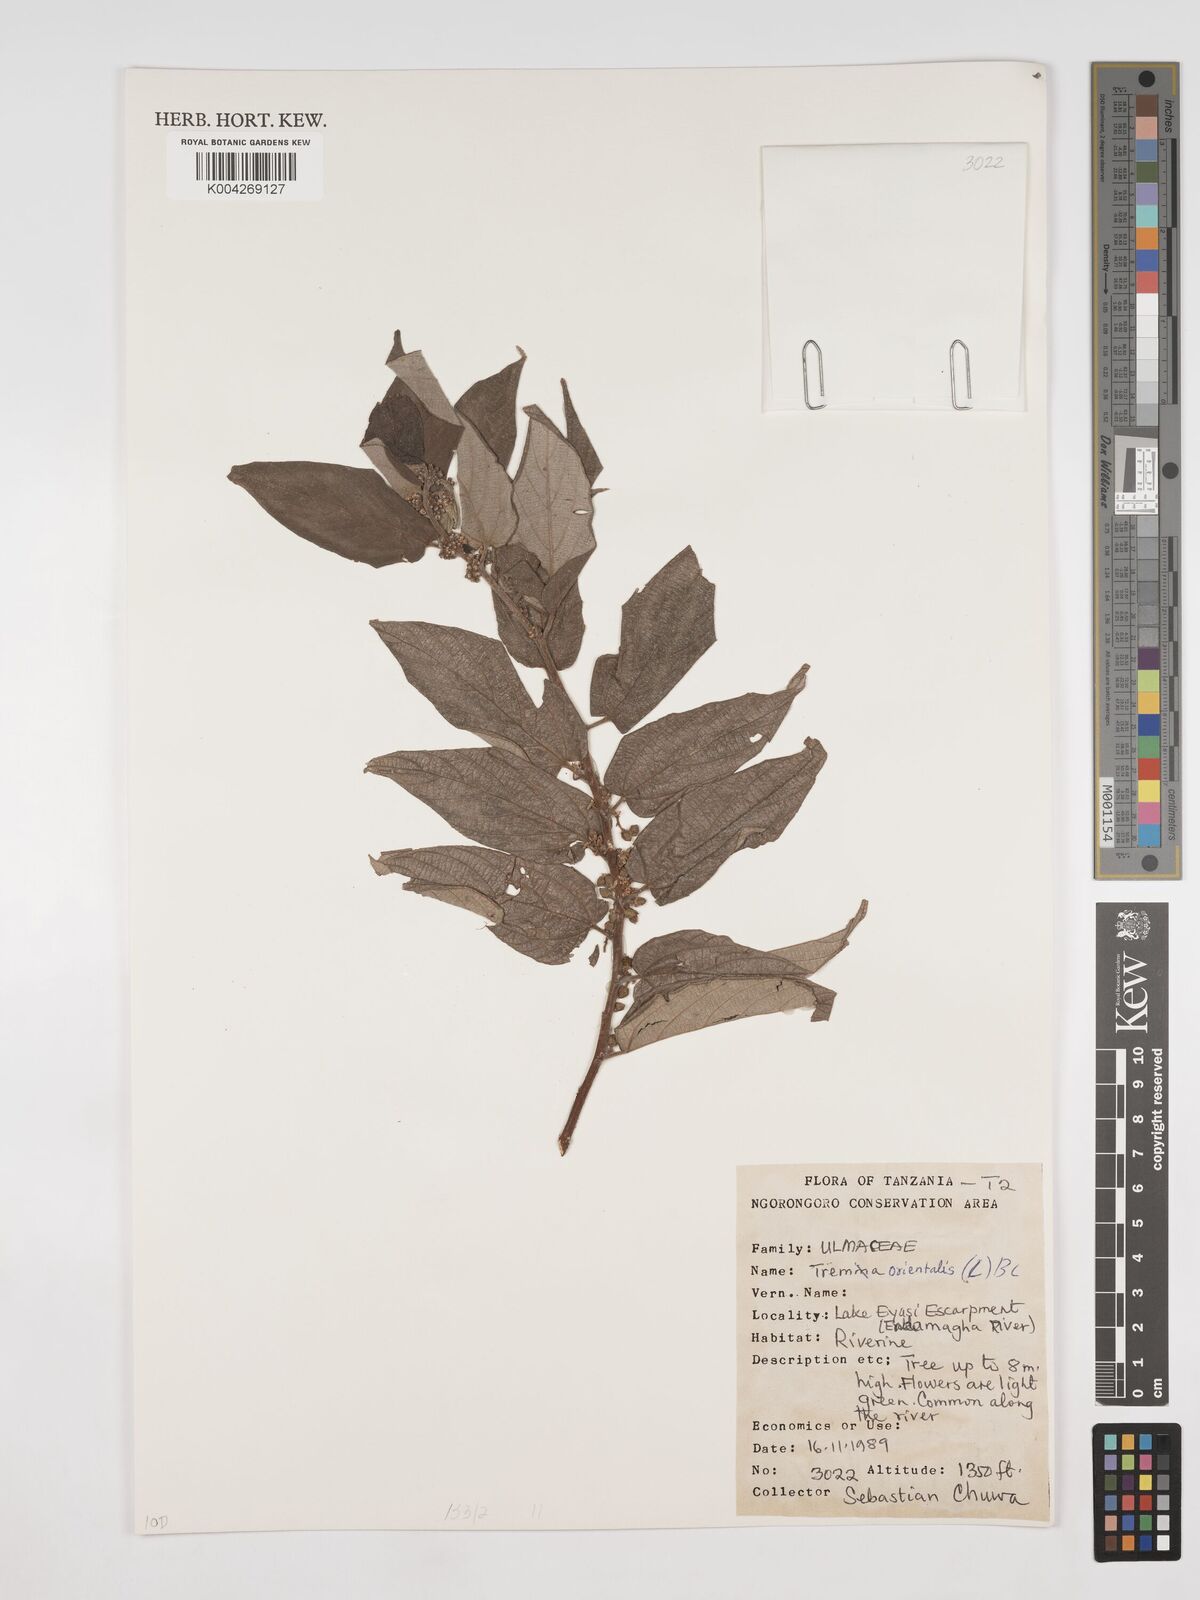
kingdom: Plantae
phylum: Tracheophyta
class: Magnoliopsida
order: Rosales
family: Cannabaceae
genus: Trema
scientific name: Trema orientale
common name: Indian charcoal tree
